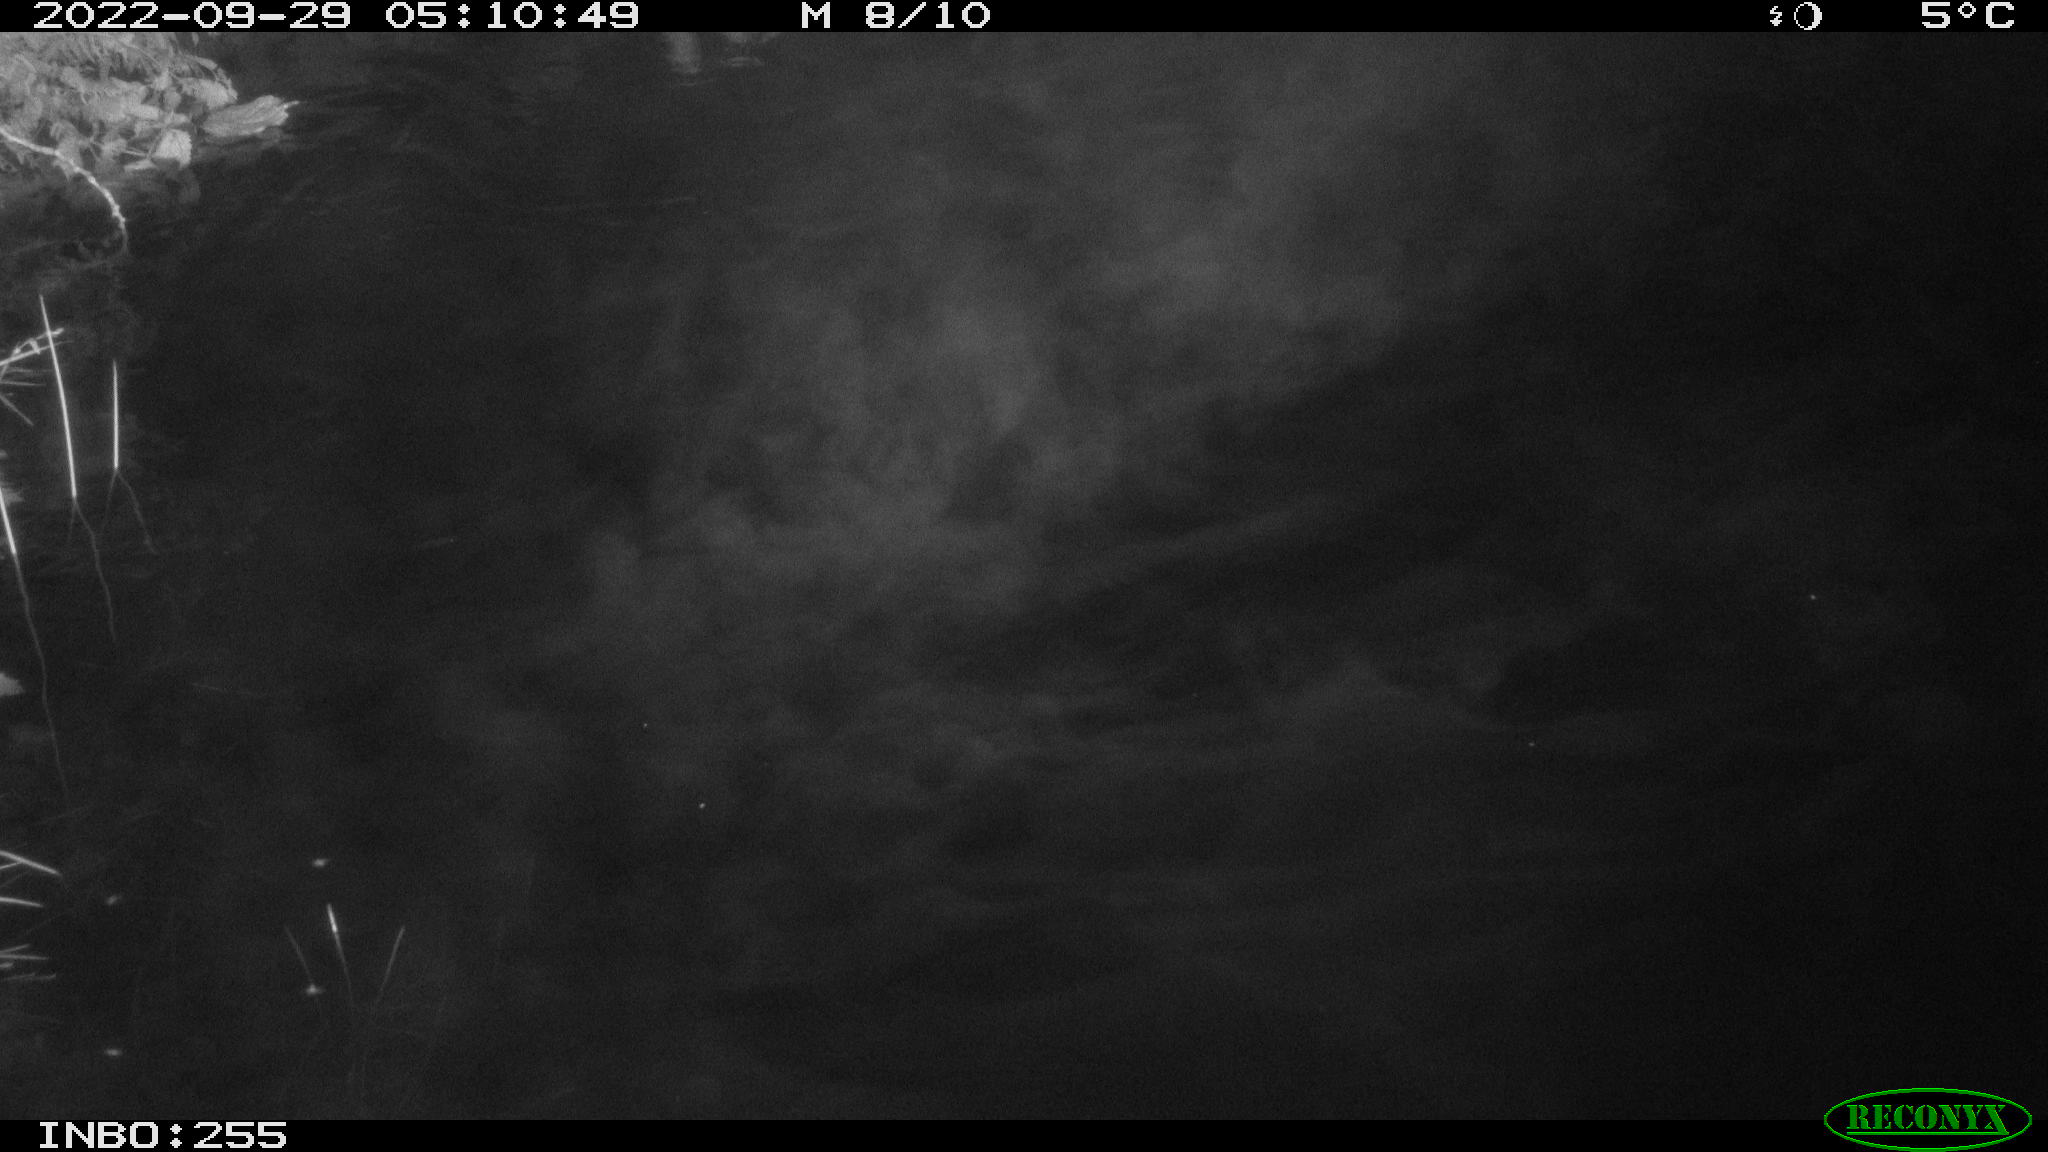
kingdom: Animalia
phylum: Chordata
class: Mammalia
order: Rodentia
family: Muridae
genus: Rattus
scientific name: Rattus norvegicus
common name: Brown rat
